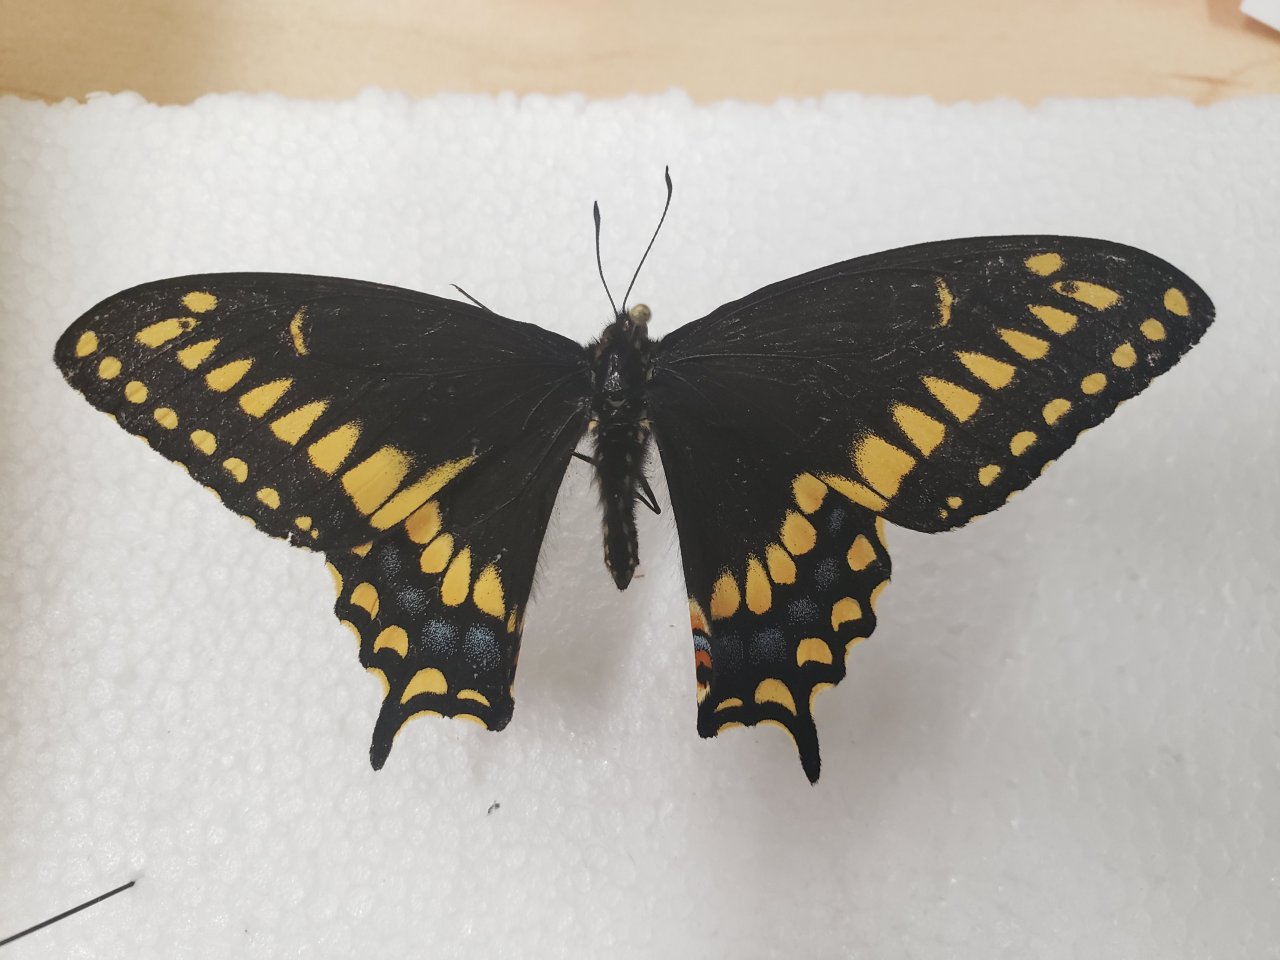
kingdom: Animalia
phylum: Arthropoda
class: Insecta
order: Lepidoptera
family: Papilionidae
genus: Papilio
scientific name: Papilio brevicauda
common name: Short-tailed Swallowtail
